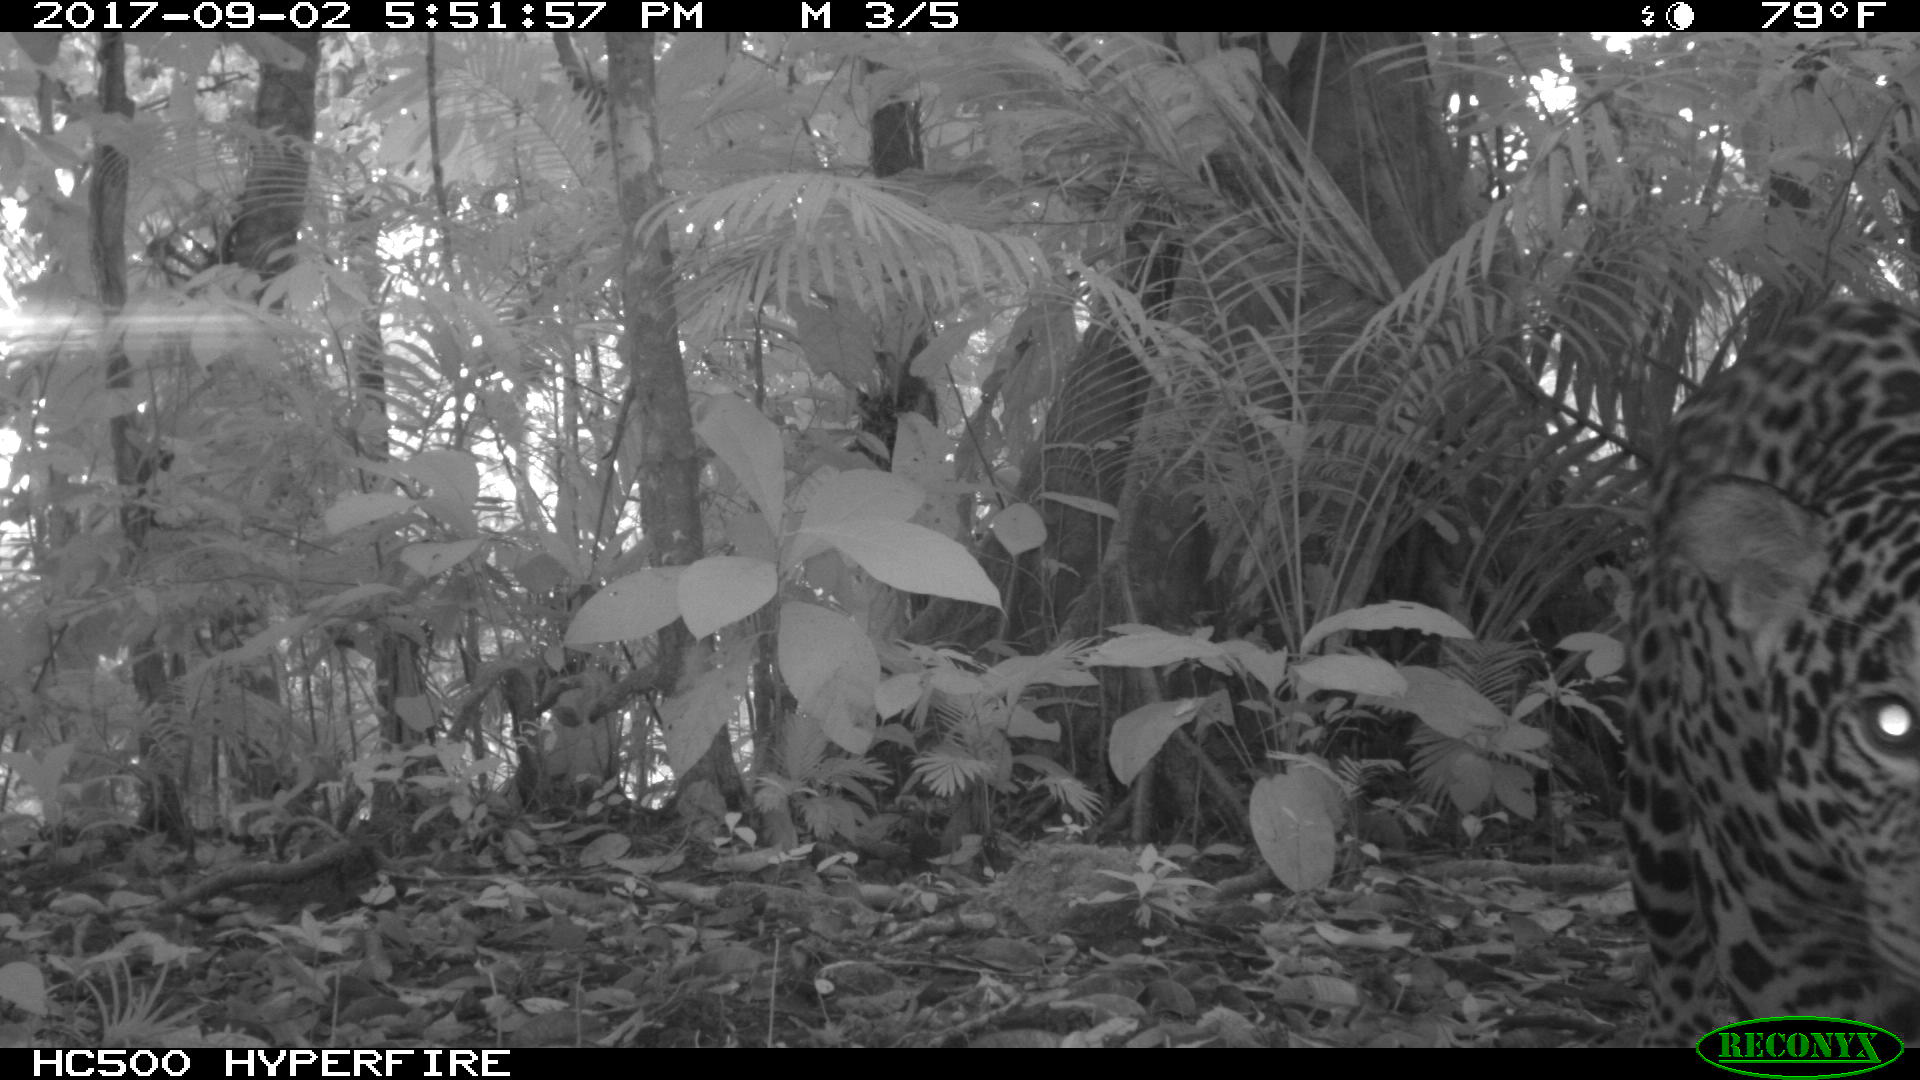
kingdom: Animalia
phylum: Chordata
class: Mammalia
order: Carnivora
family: Felidae
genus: Panthera
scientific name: Panthera onca
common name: Jaguar
